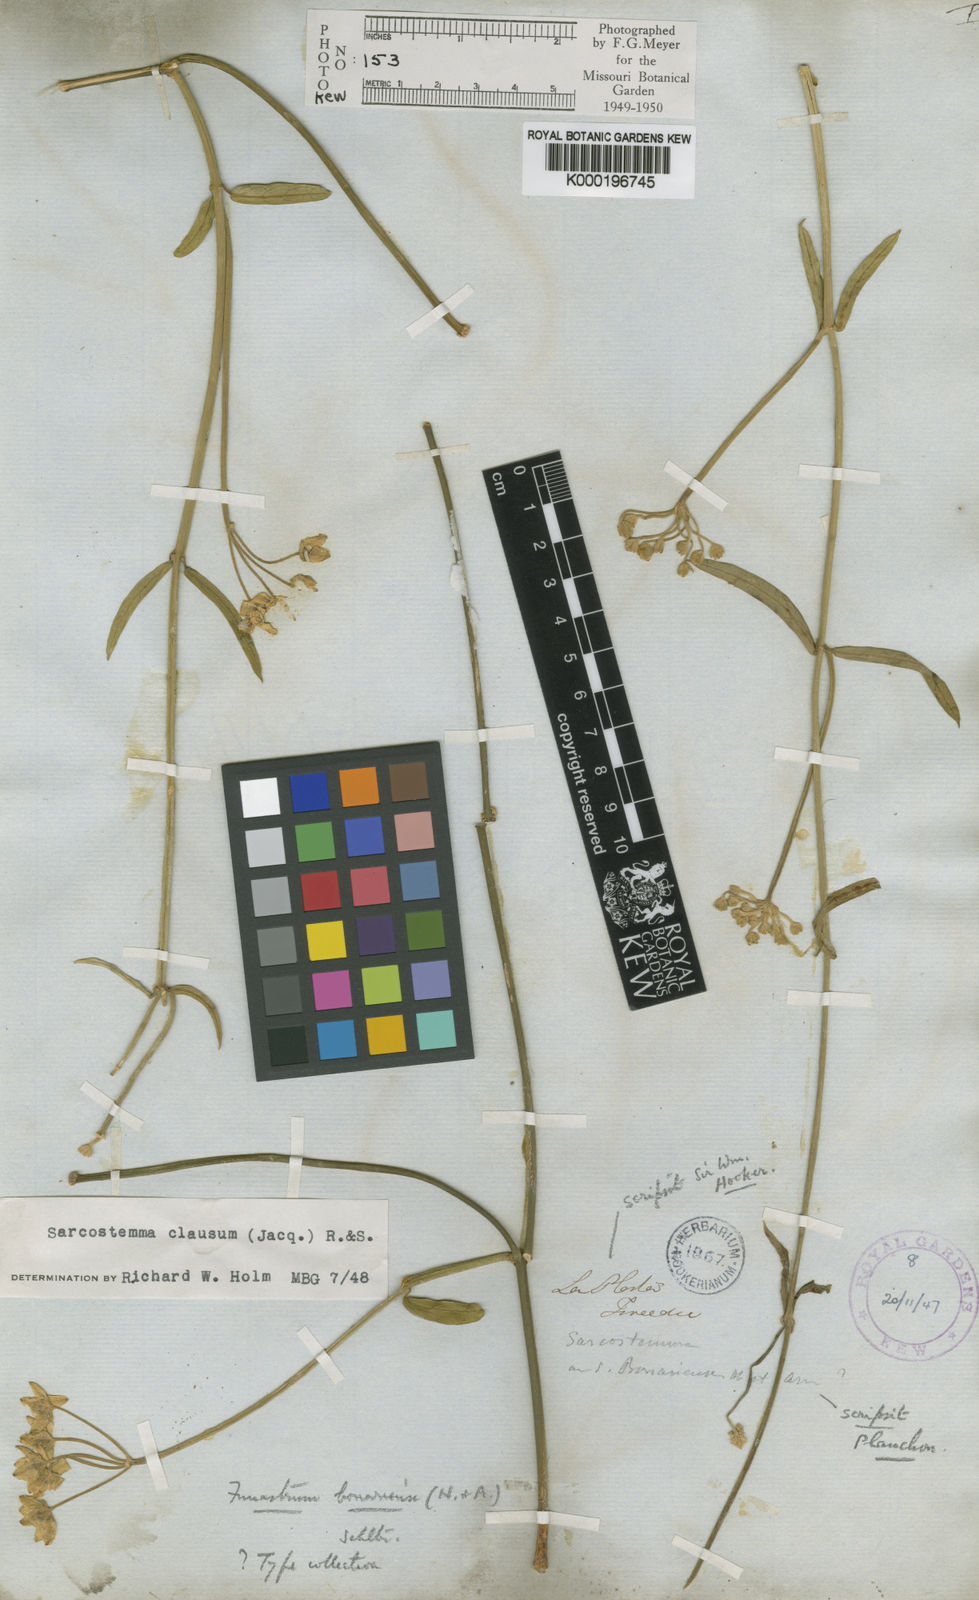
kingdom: Plantae
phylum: Tracheophyta
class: Magnoliopsida
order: Gentianales
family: Apocynaceae
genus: Funastrum
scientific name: Funastrum clausum
